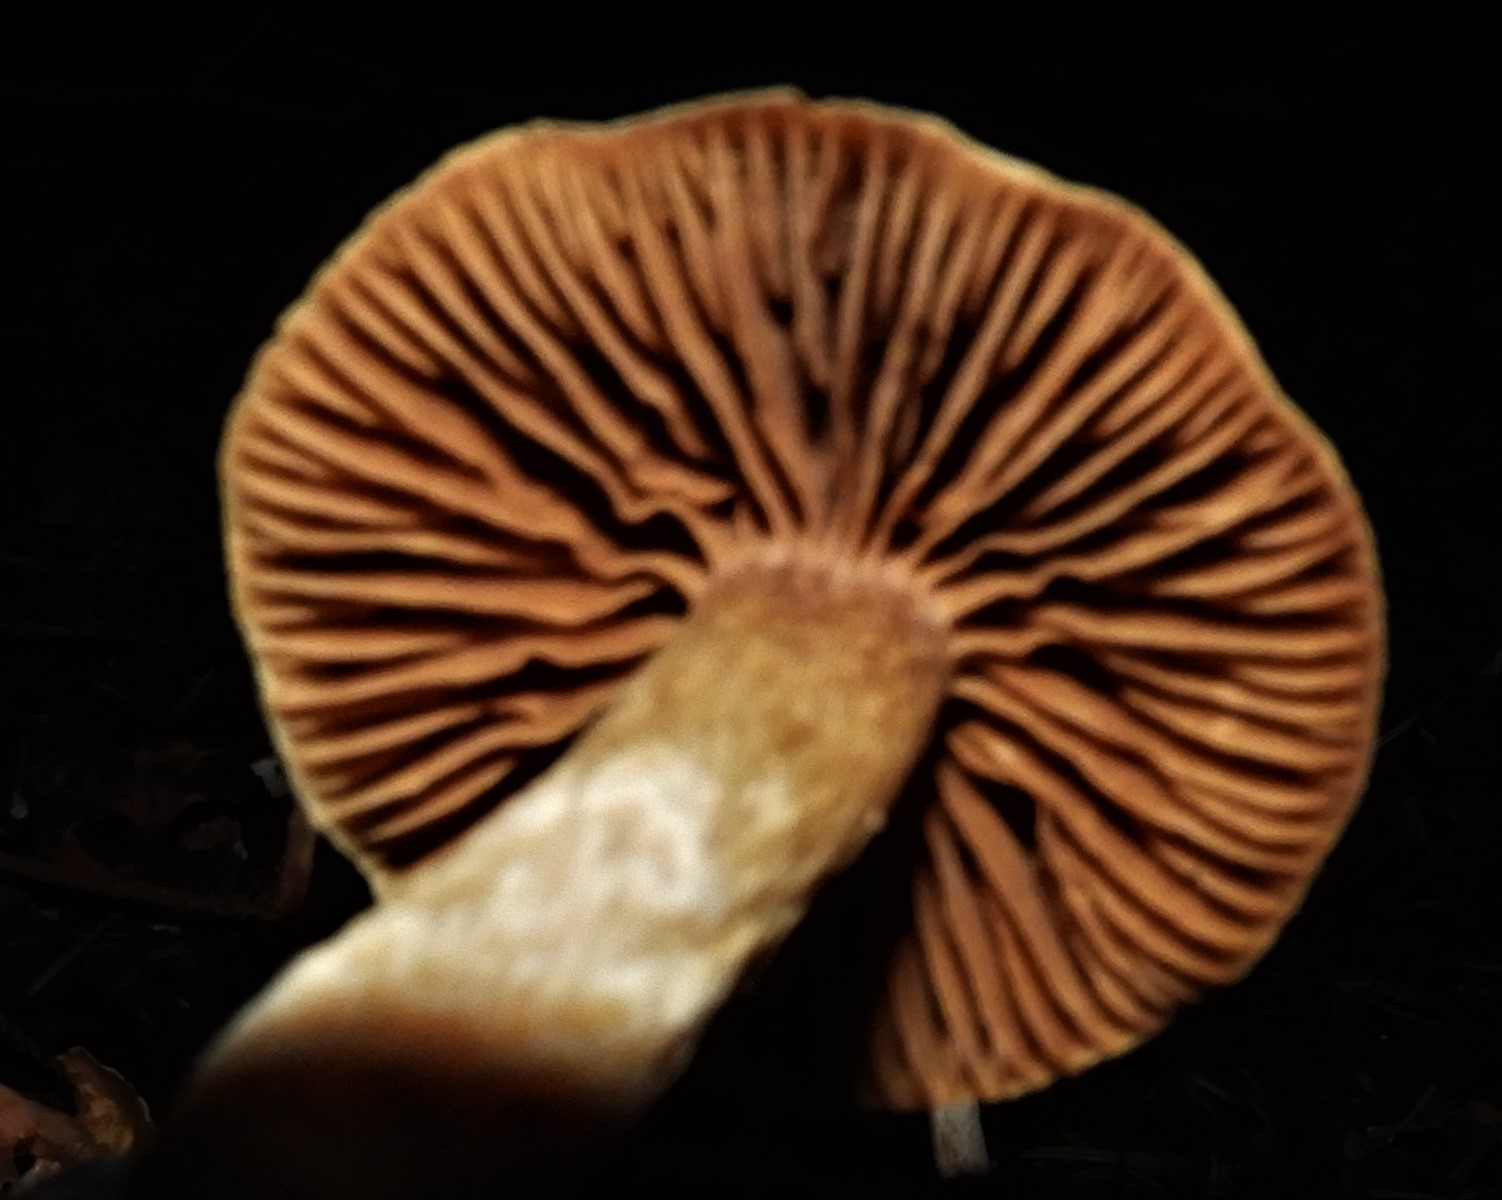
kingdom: Fungi
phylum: Basidiomycota
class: Agaricomycetes
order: Agaricales
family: Cortinariaceae
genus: Cortinarius
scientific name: Cortinarius
